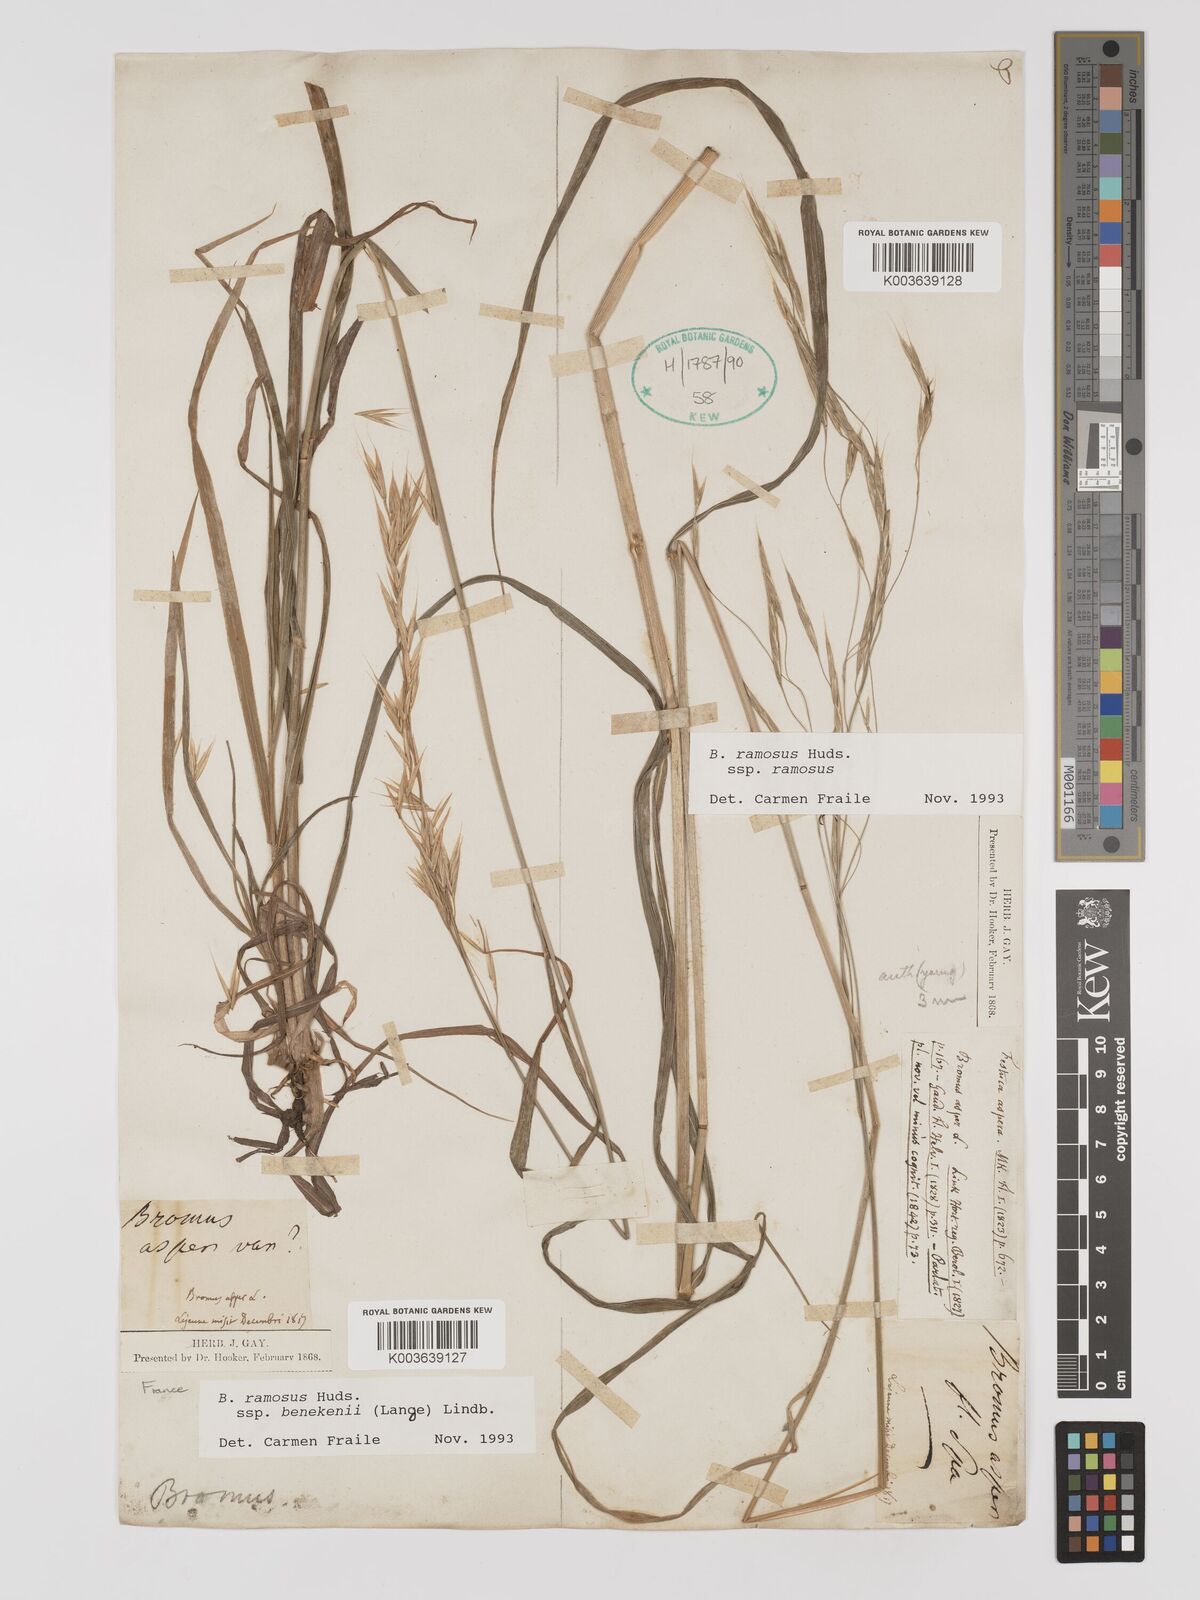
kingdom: Plantae
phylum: Tracheophyta
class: Liliopsida
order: Poales
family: Poaceae
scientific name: Poaceae
